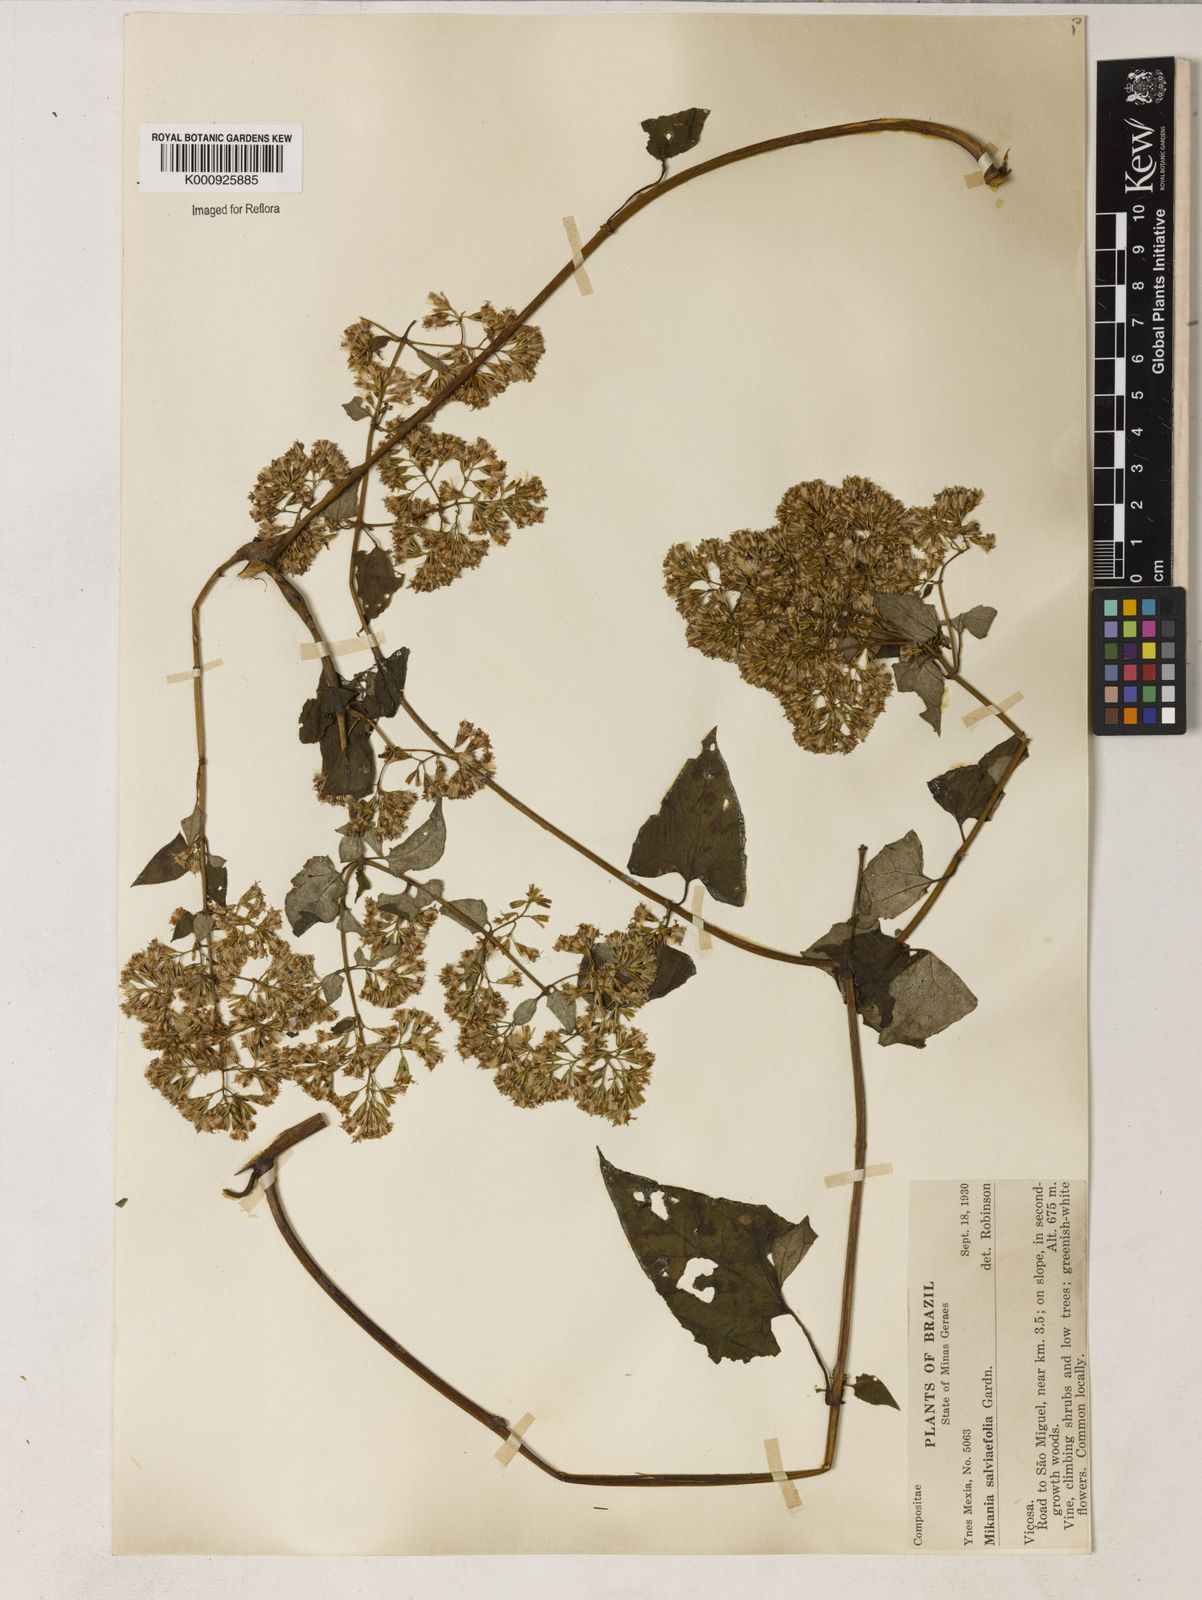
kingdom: Plantae
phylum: Tracheophyta
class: Magnoliopsida
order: Asterales
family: Asteraceae
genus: Mikania
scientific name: Mikania
